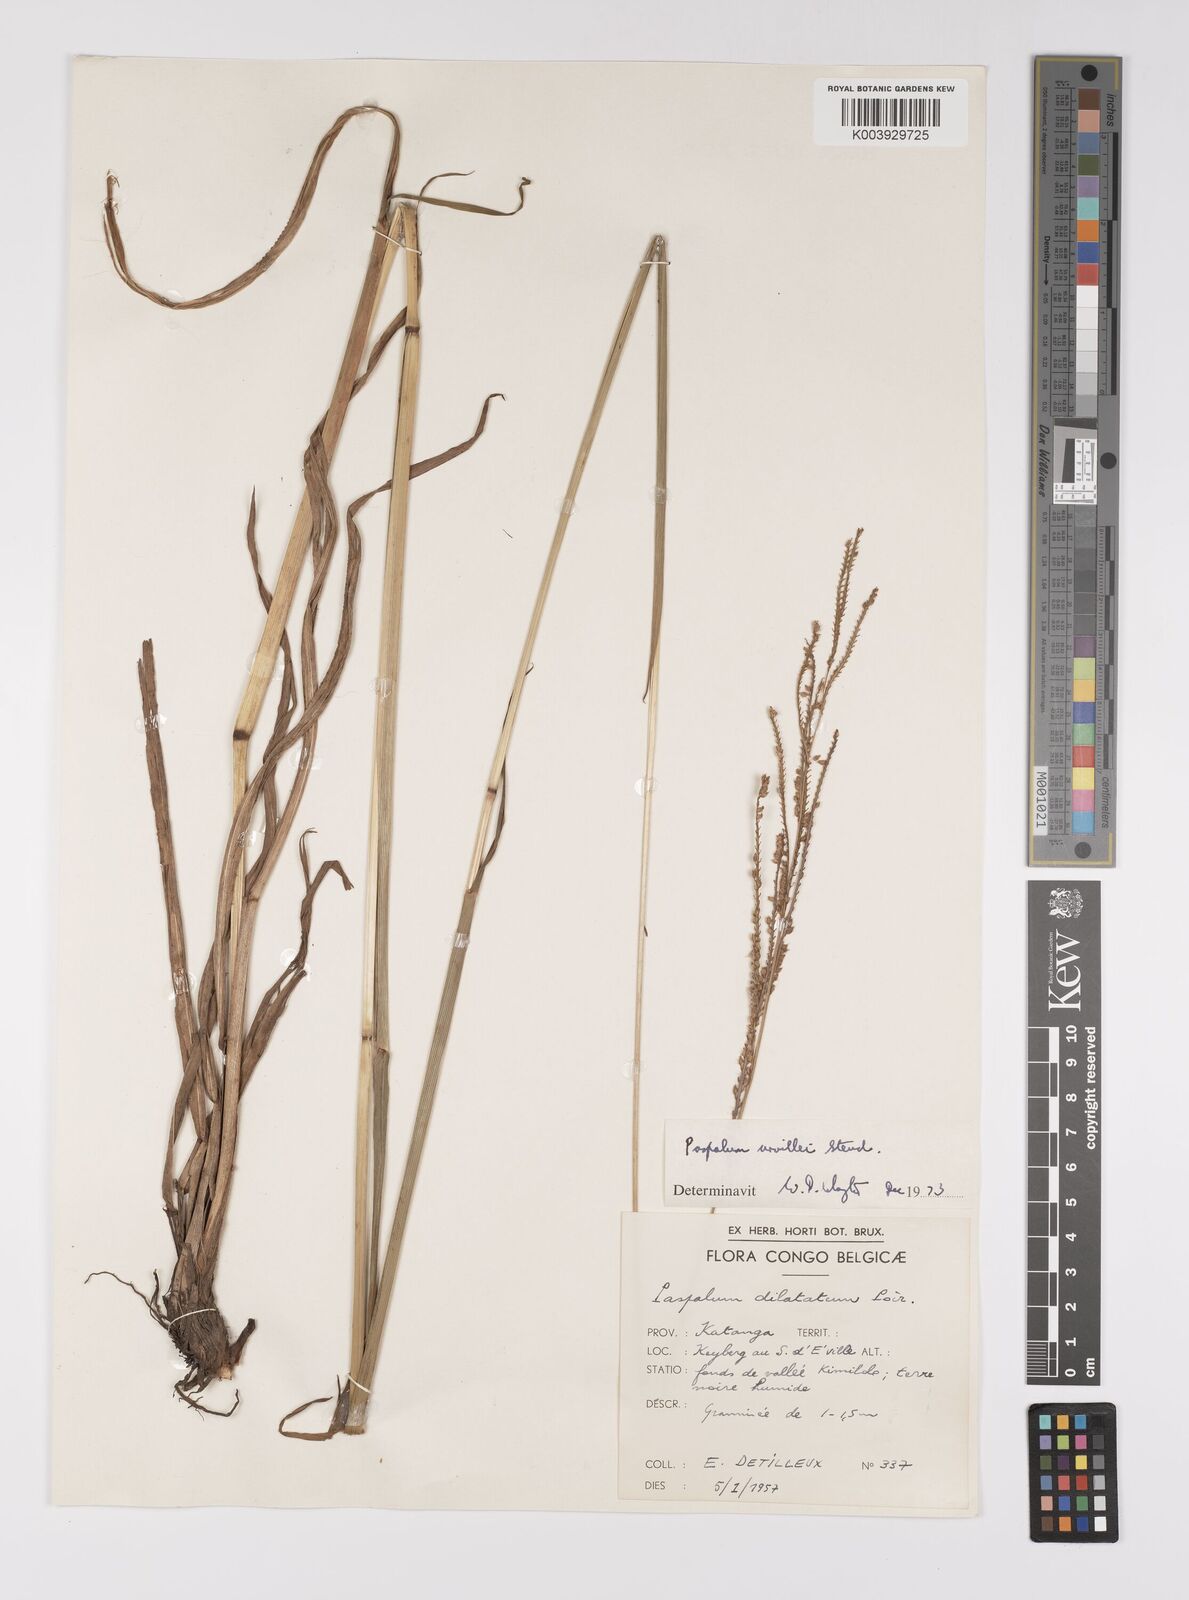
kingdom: Plantae
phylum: Tracheophyta
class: Liliopsida
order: Poales
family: Poaceae
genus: Paspalum
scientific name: Paspalum urvillei
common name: Vasey's grass
